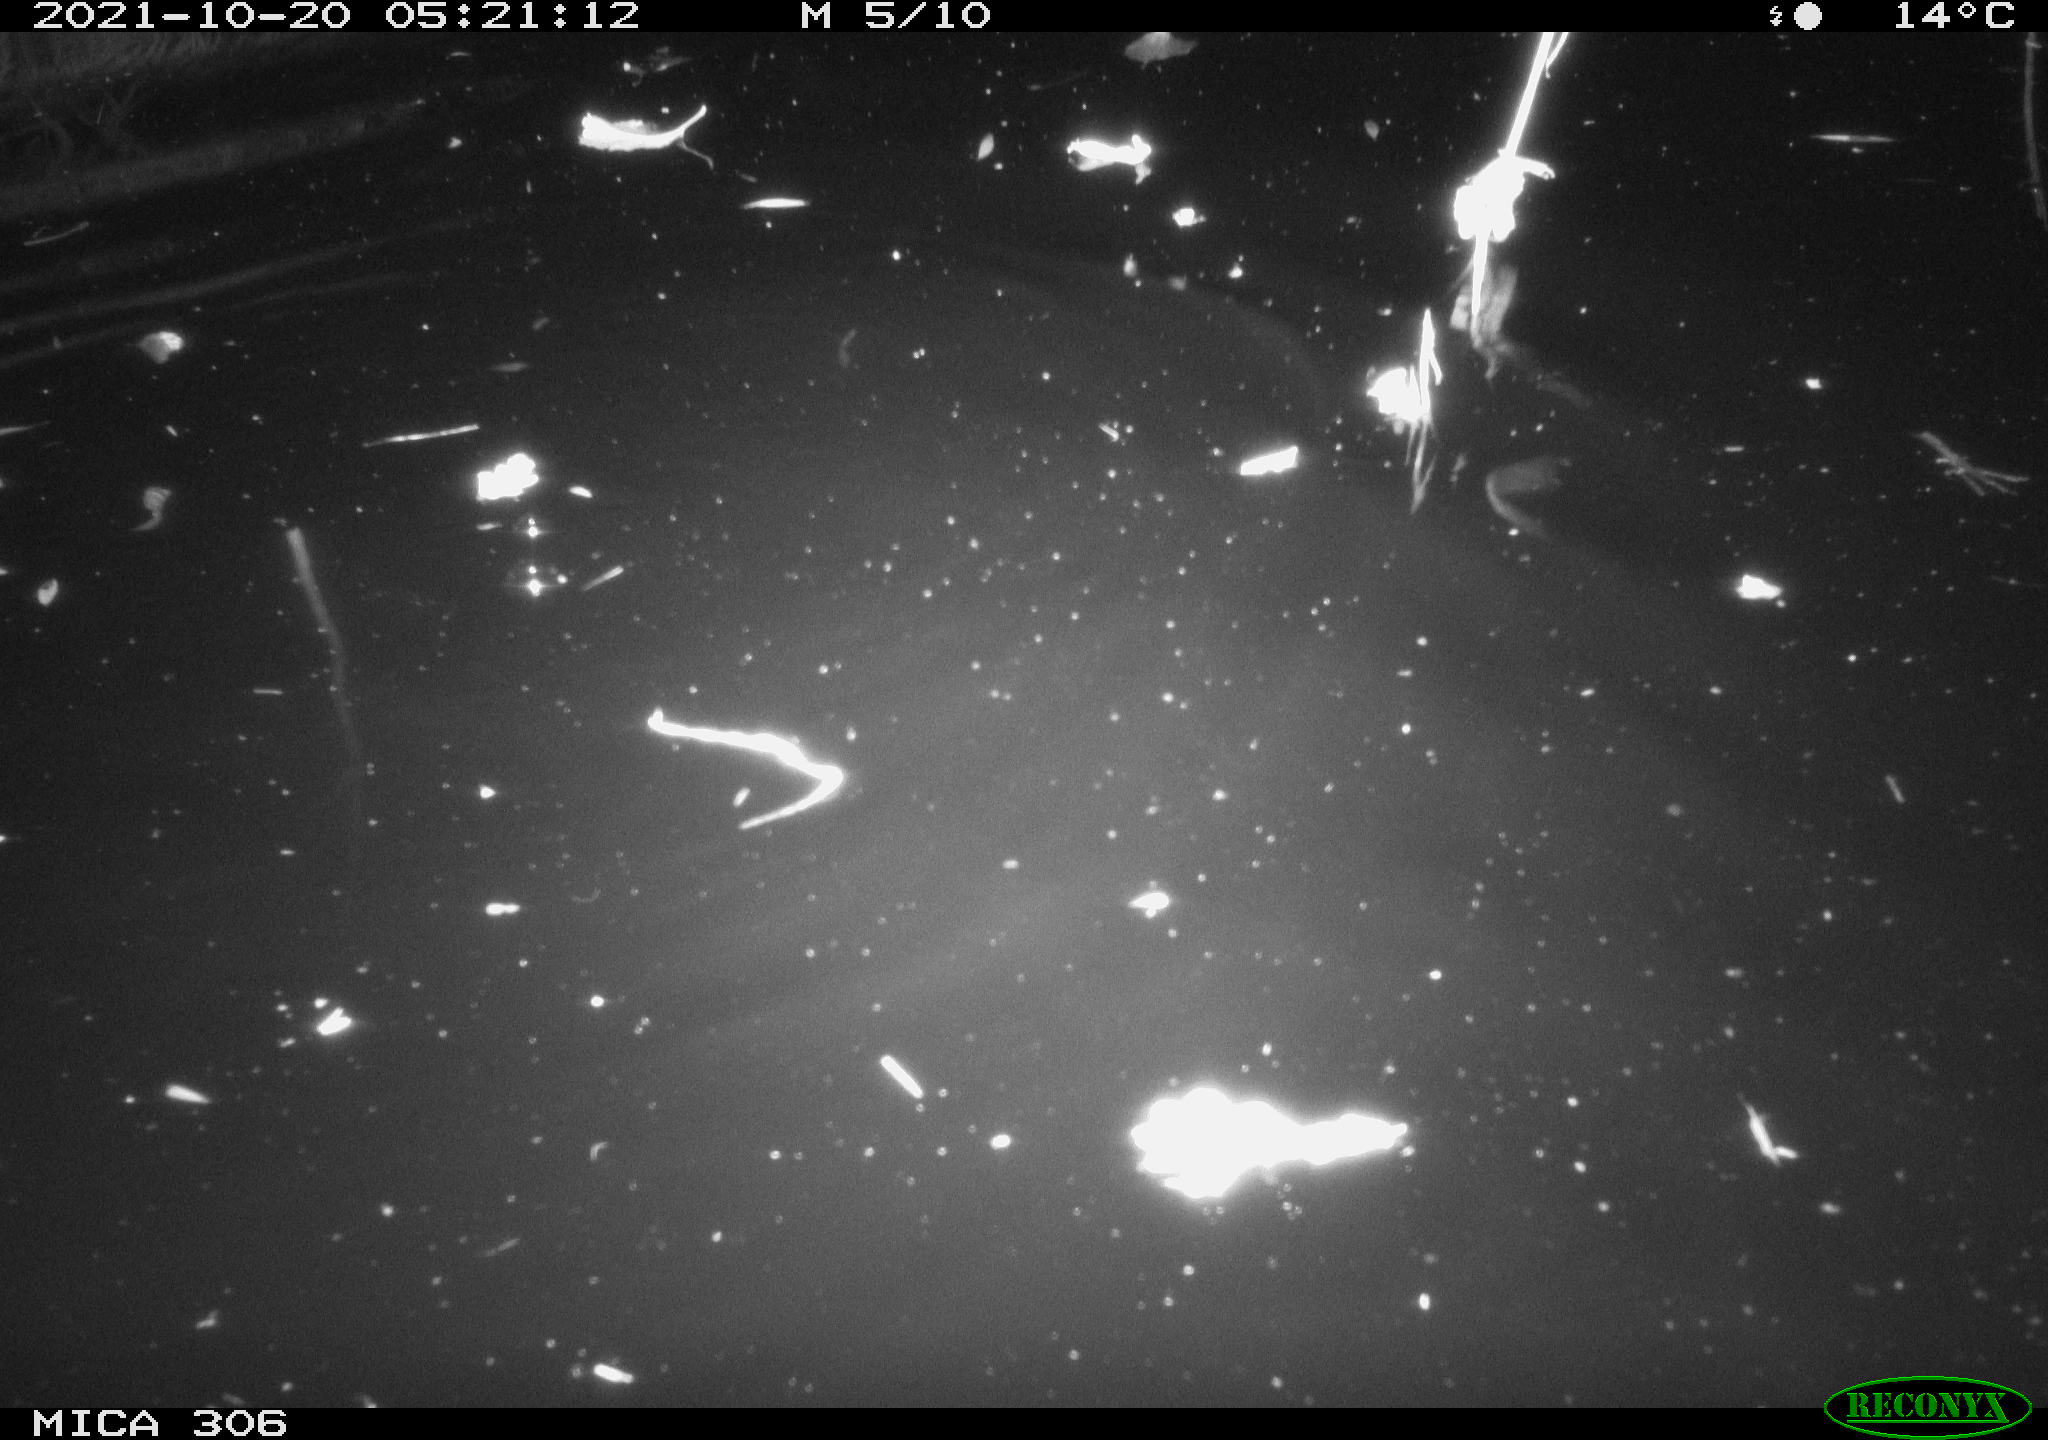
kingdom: Animalia
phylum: Chordata
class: Mammalia
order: Rodentia
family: Cricetidae
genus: Ondatra
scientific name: Ondatra zibethicus
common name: Muskrat
